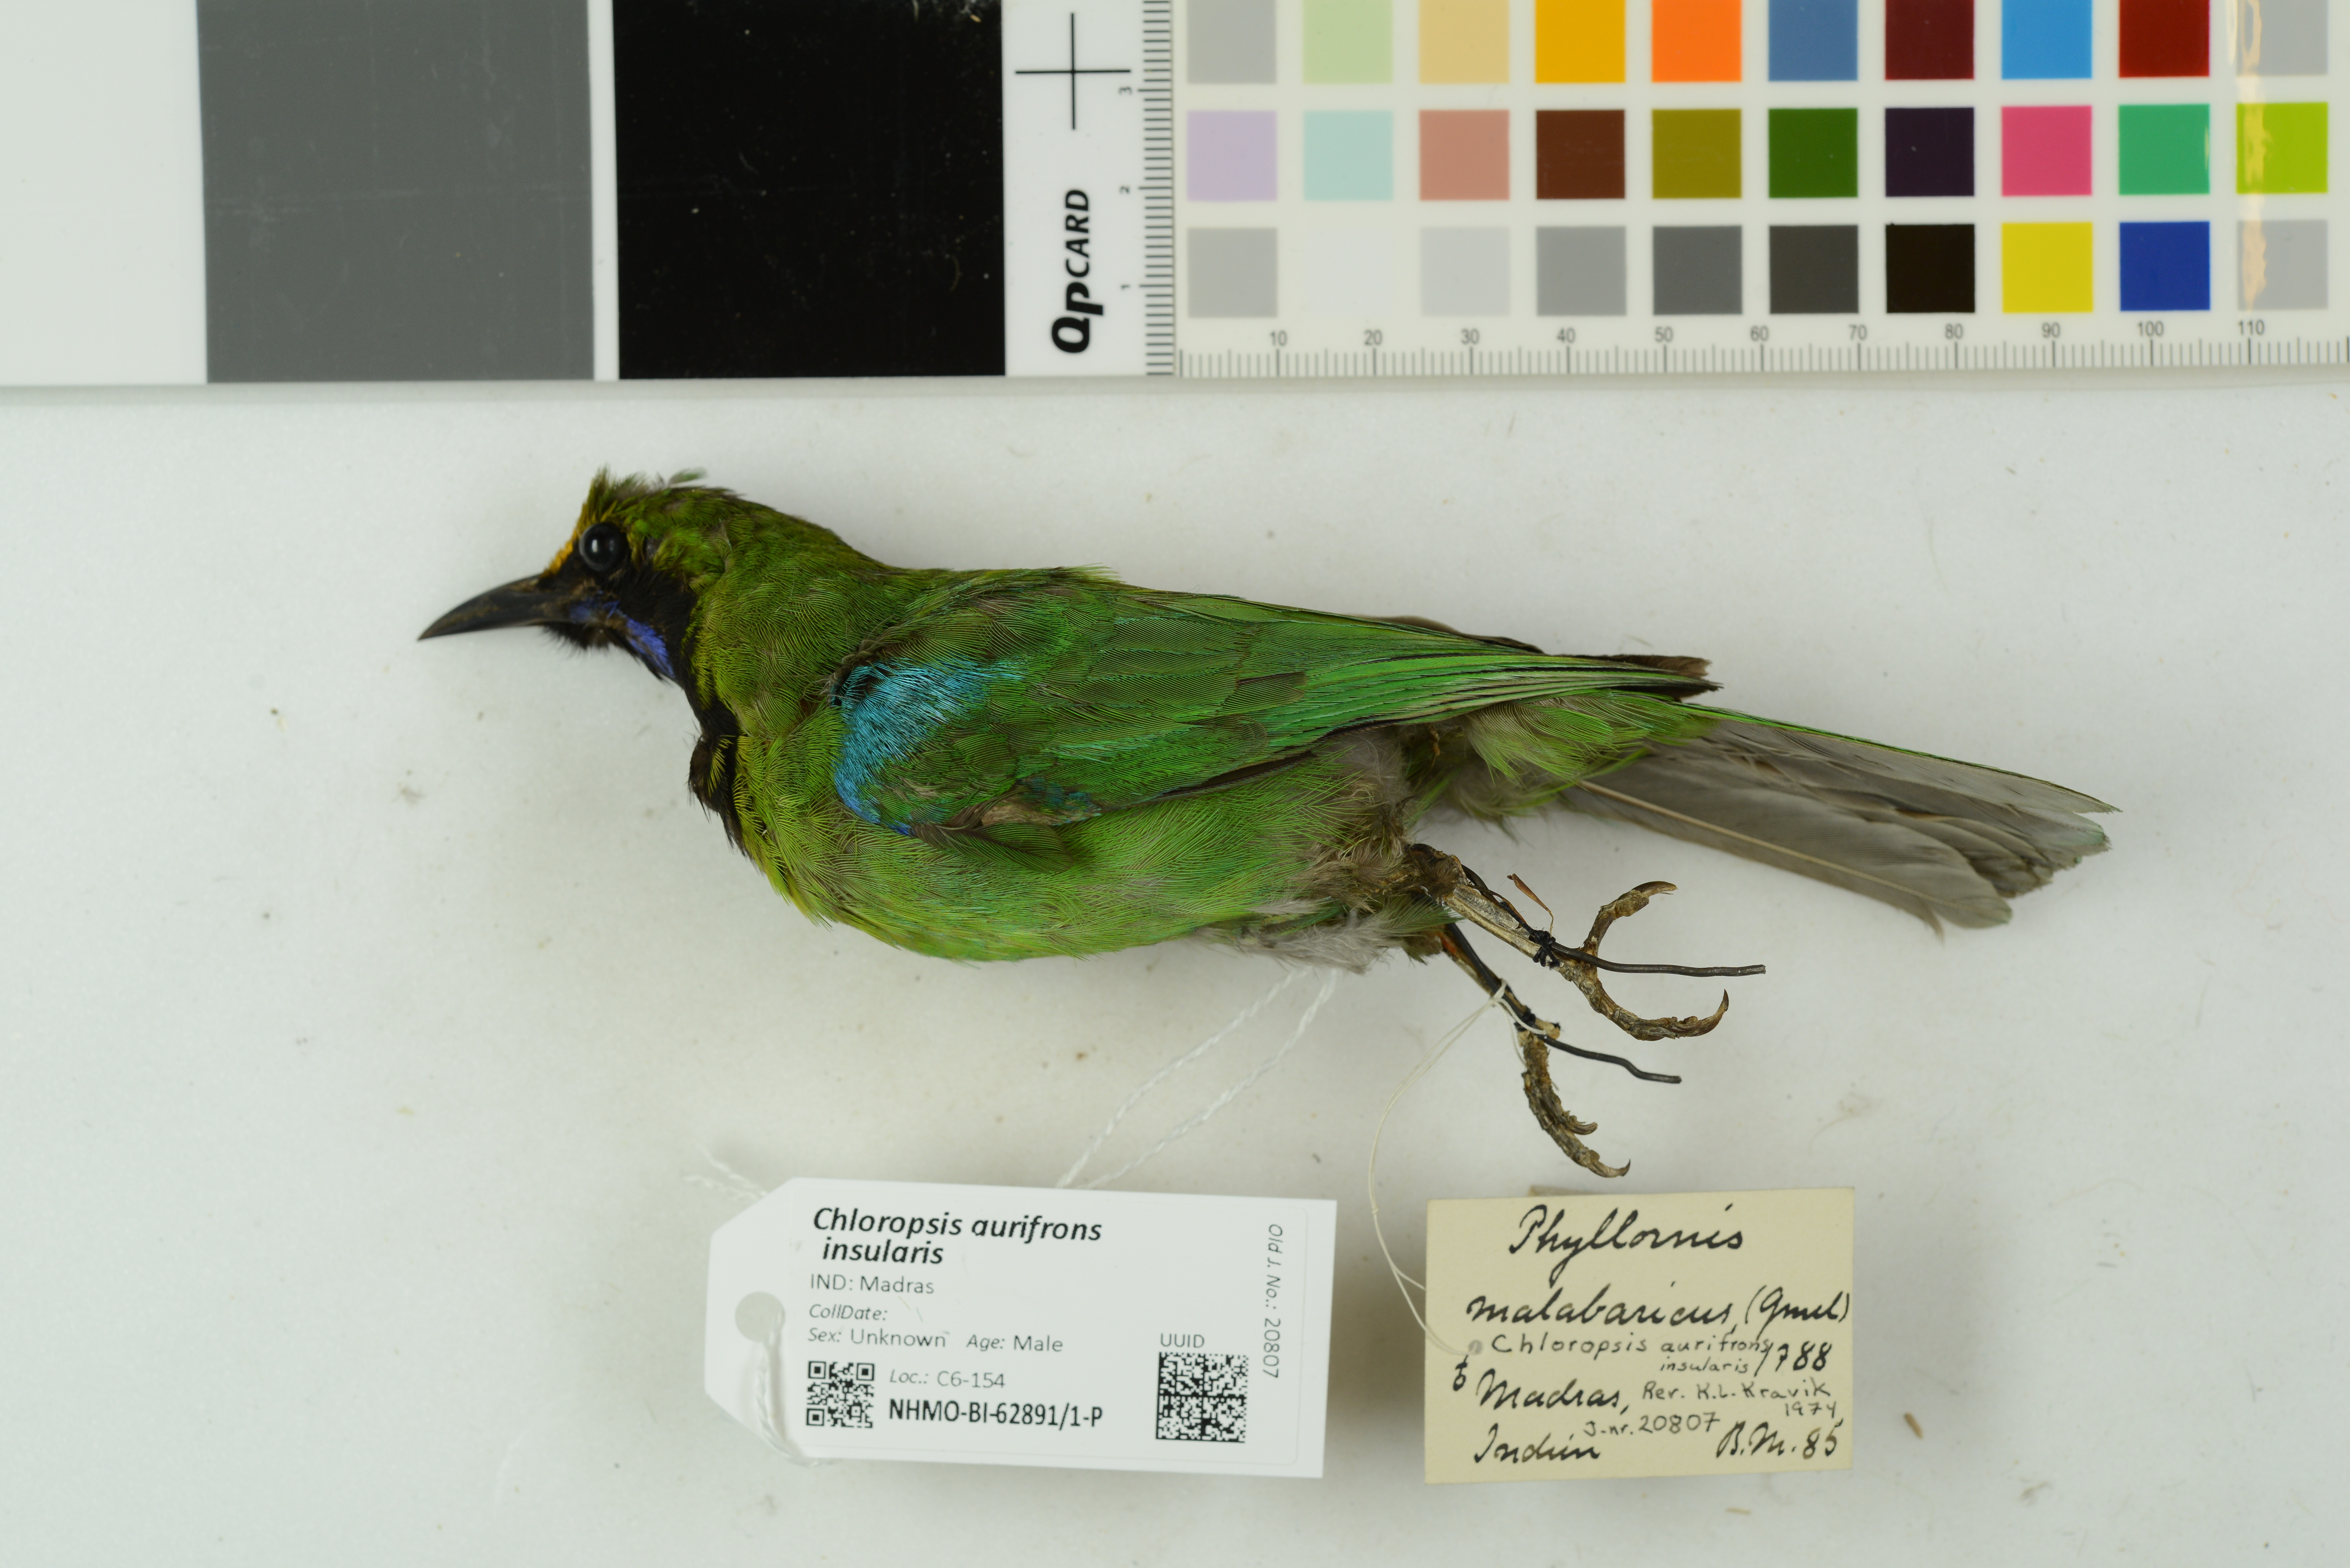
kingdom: Animalia
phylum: Chordata
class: Aves
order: Passeriformes
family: Chloropseidae
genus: Chloropsis
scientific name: Chloropsis aurifrons
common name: Golden-fronted leafbird
